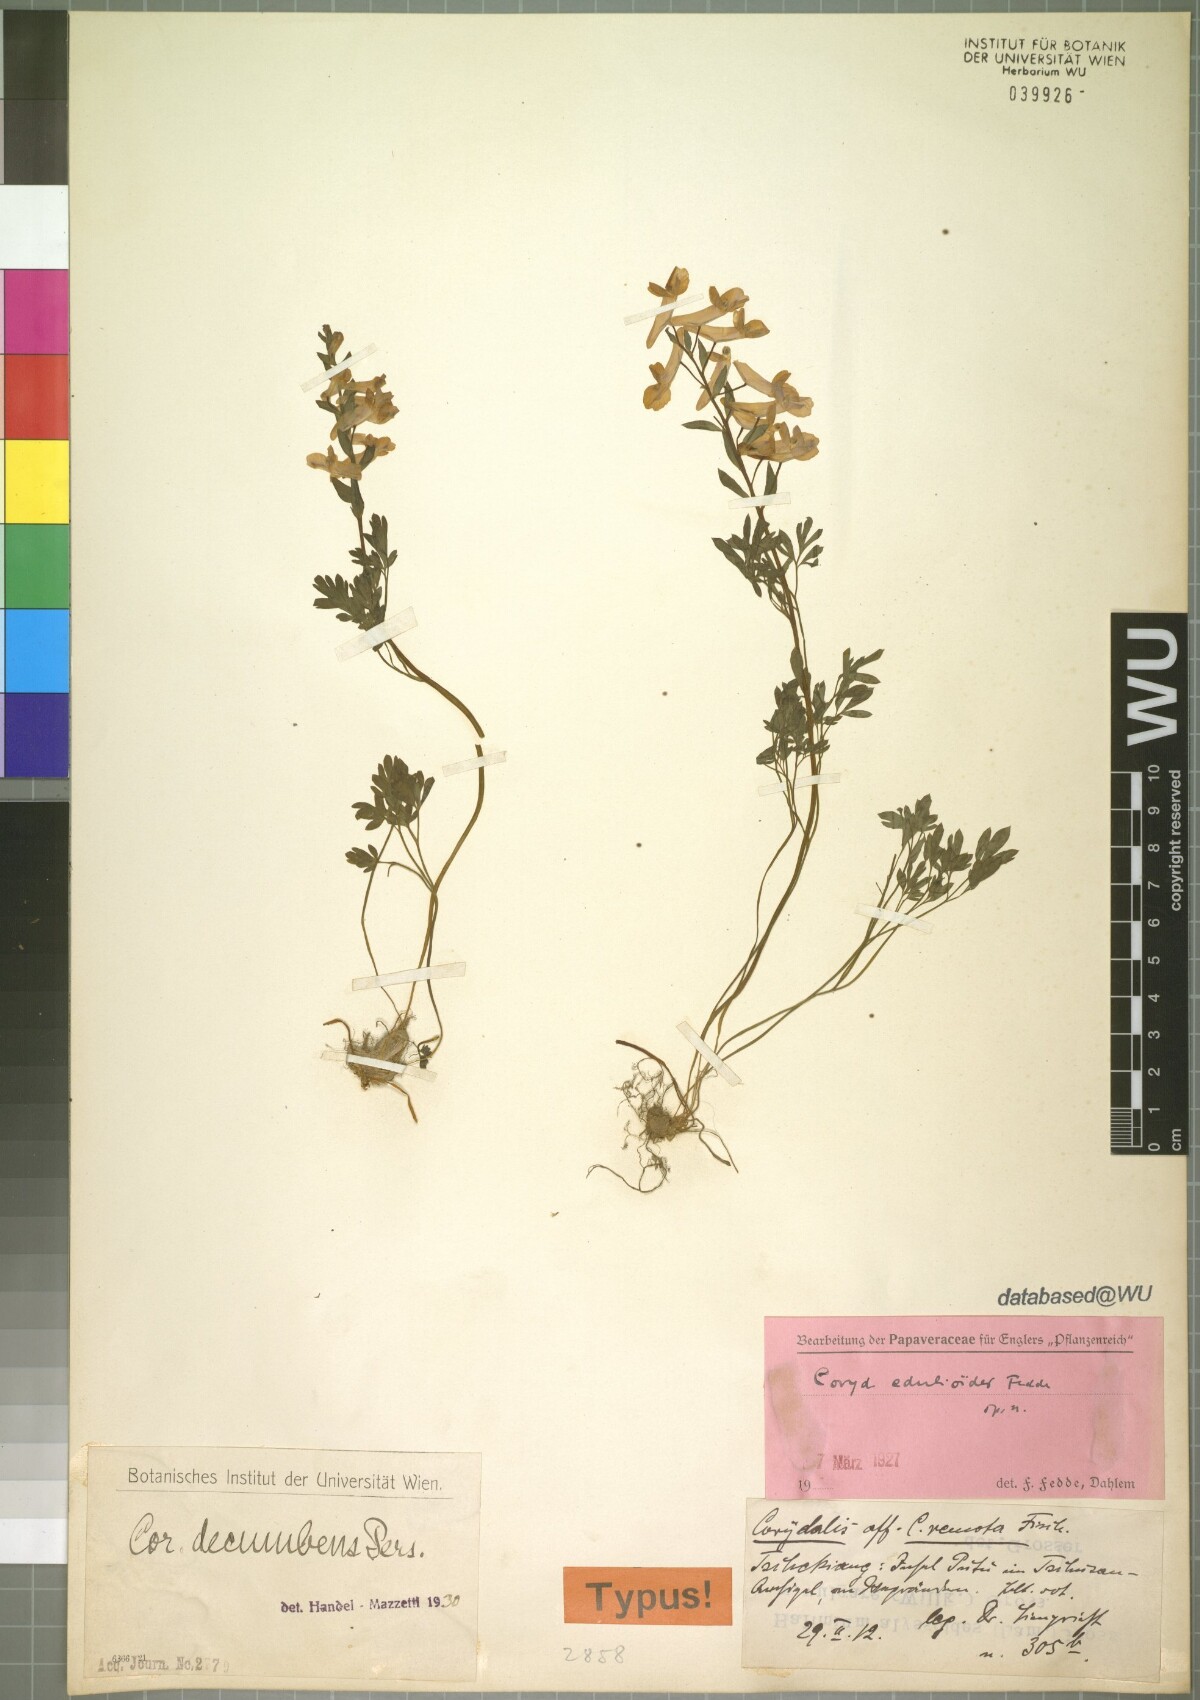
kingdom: Plantae
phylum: Tracheophyta
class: Magnoliopsida
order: Ranunculales
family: Papaveraceae
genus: Corydalis
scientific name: Corydalis decumbens
